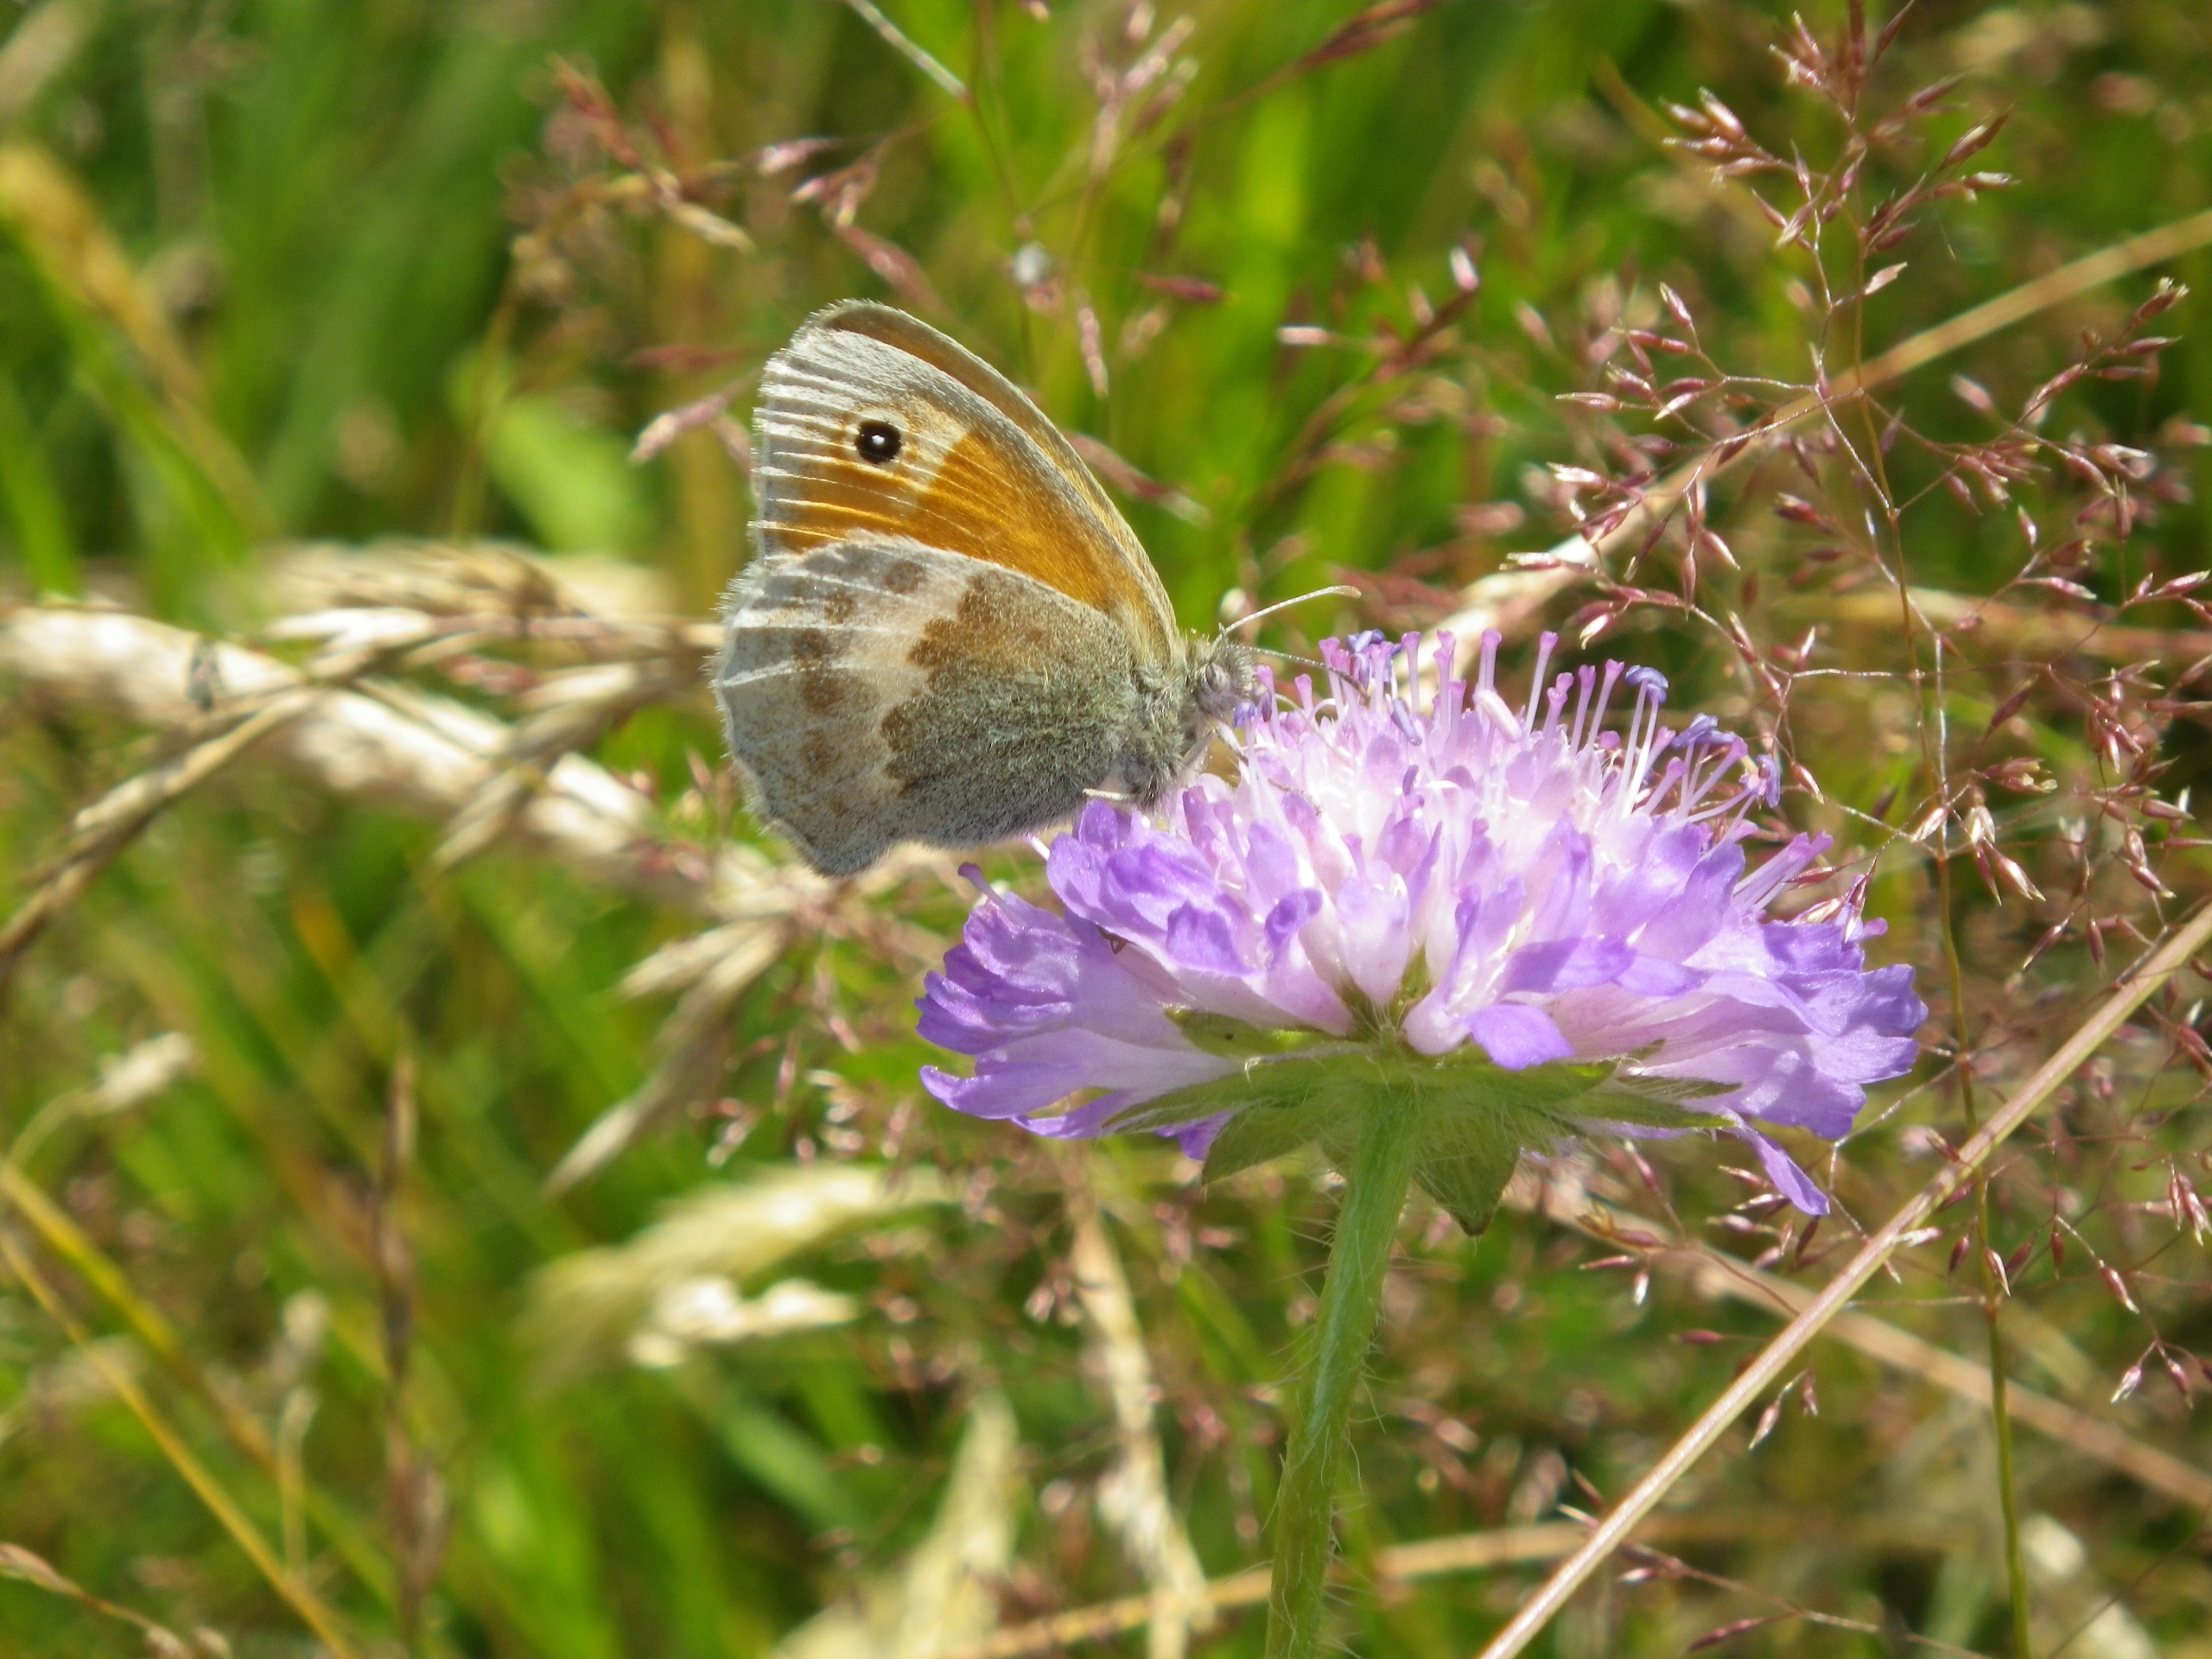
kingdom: Animalia
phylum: Arthropoda
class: Insecta
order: Lepidoptera
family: Nymphalidae
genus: Coenonympha
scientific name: Coenonympha pamphilus
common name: Okkergul randøje
